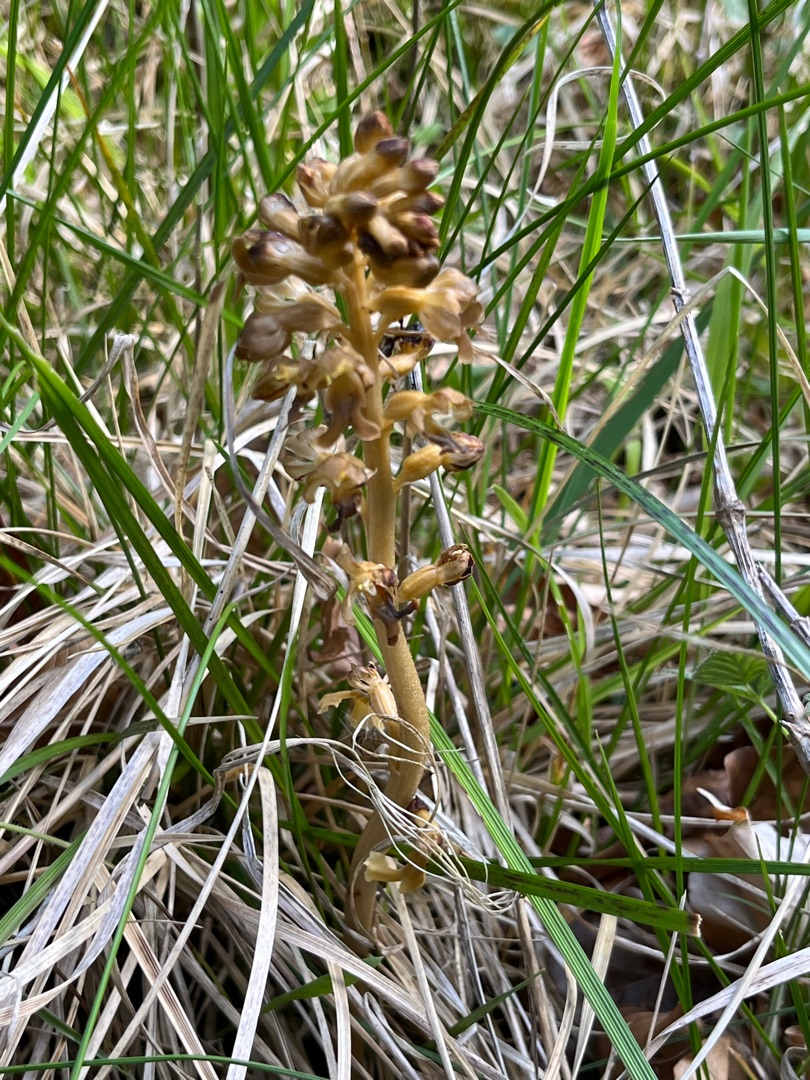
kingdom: Plantae
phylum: Tracheophyta
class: Liliopsida
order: Asparagales
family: Orchidaceae
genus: Neottia
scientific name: Neottia nidus-avis
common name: Rederod
